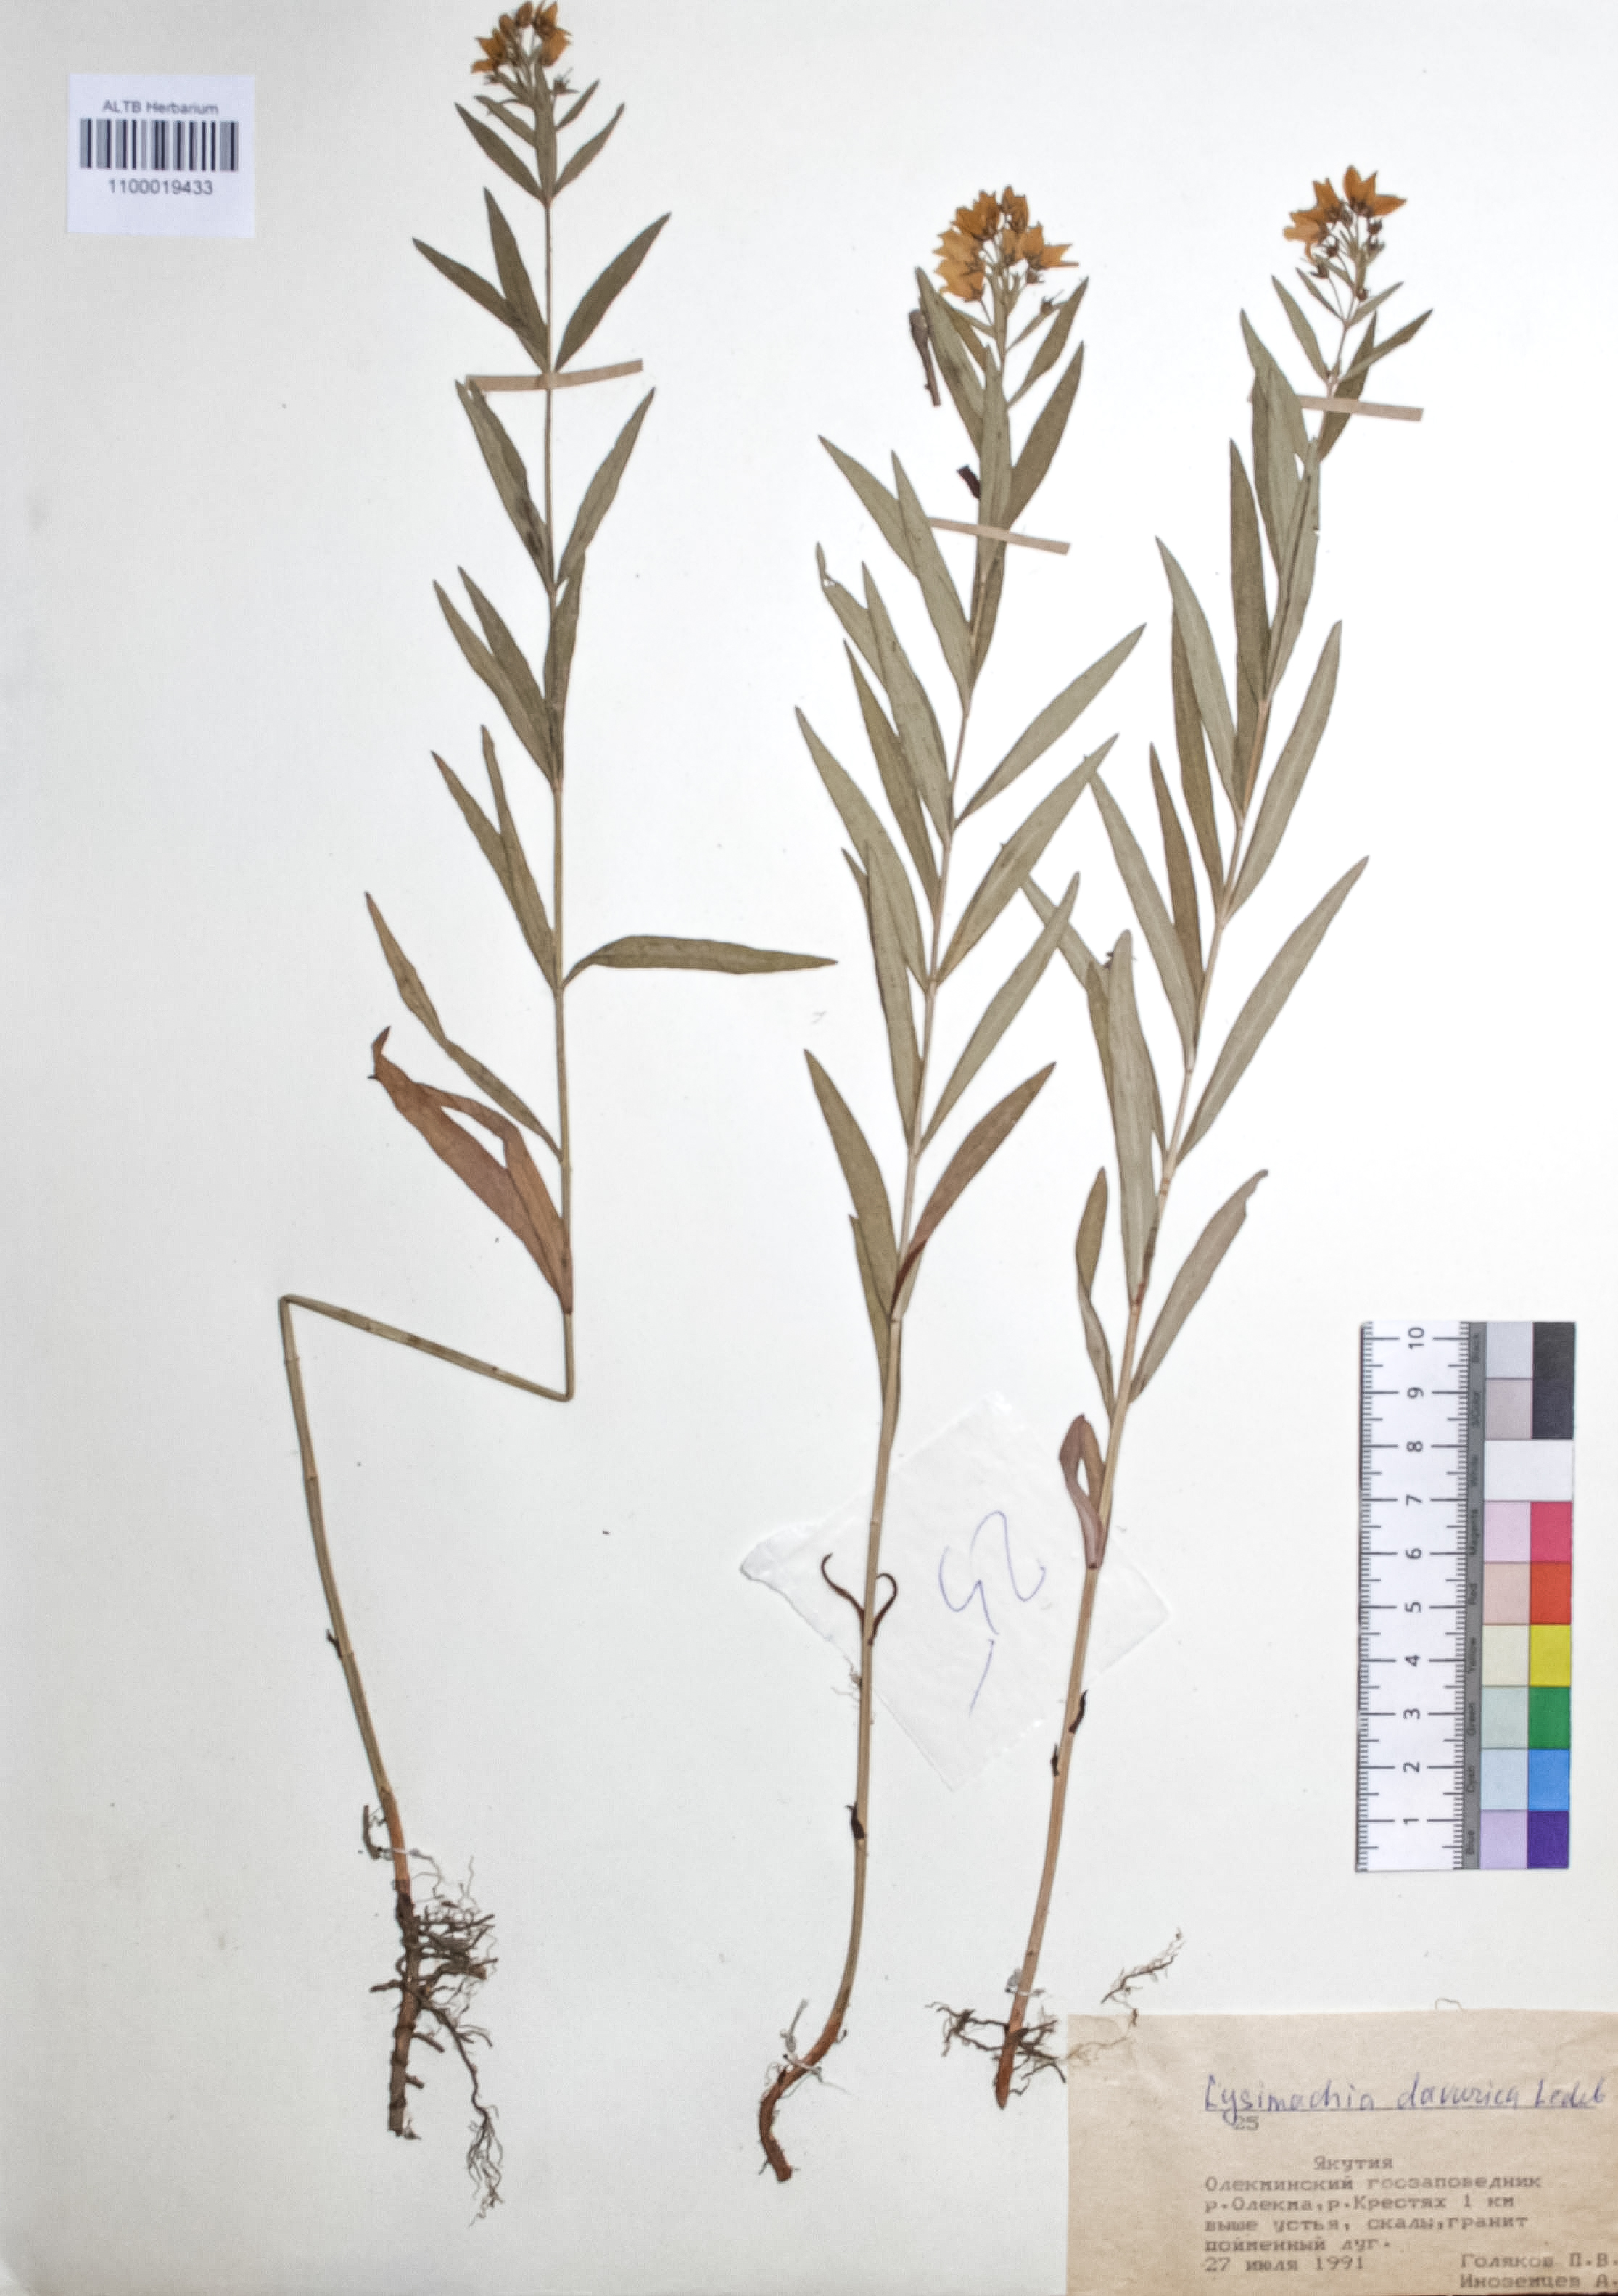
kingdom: Plantae
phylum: Tracheophyta
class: Magnoliopsida
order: Ericales
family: Primulaceae
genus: Lysimachia
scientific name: Lysimachia davurica
